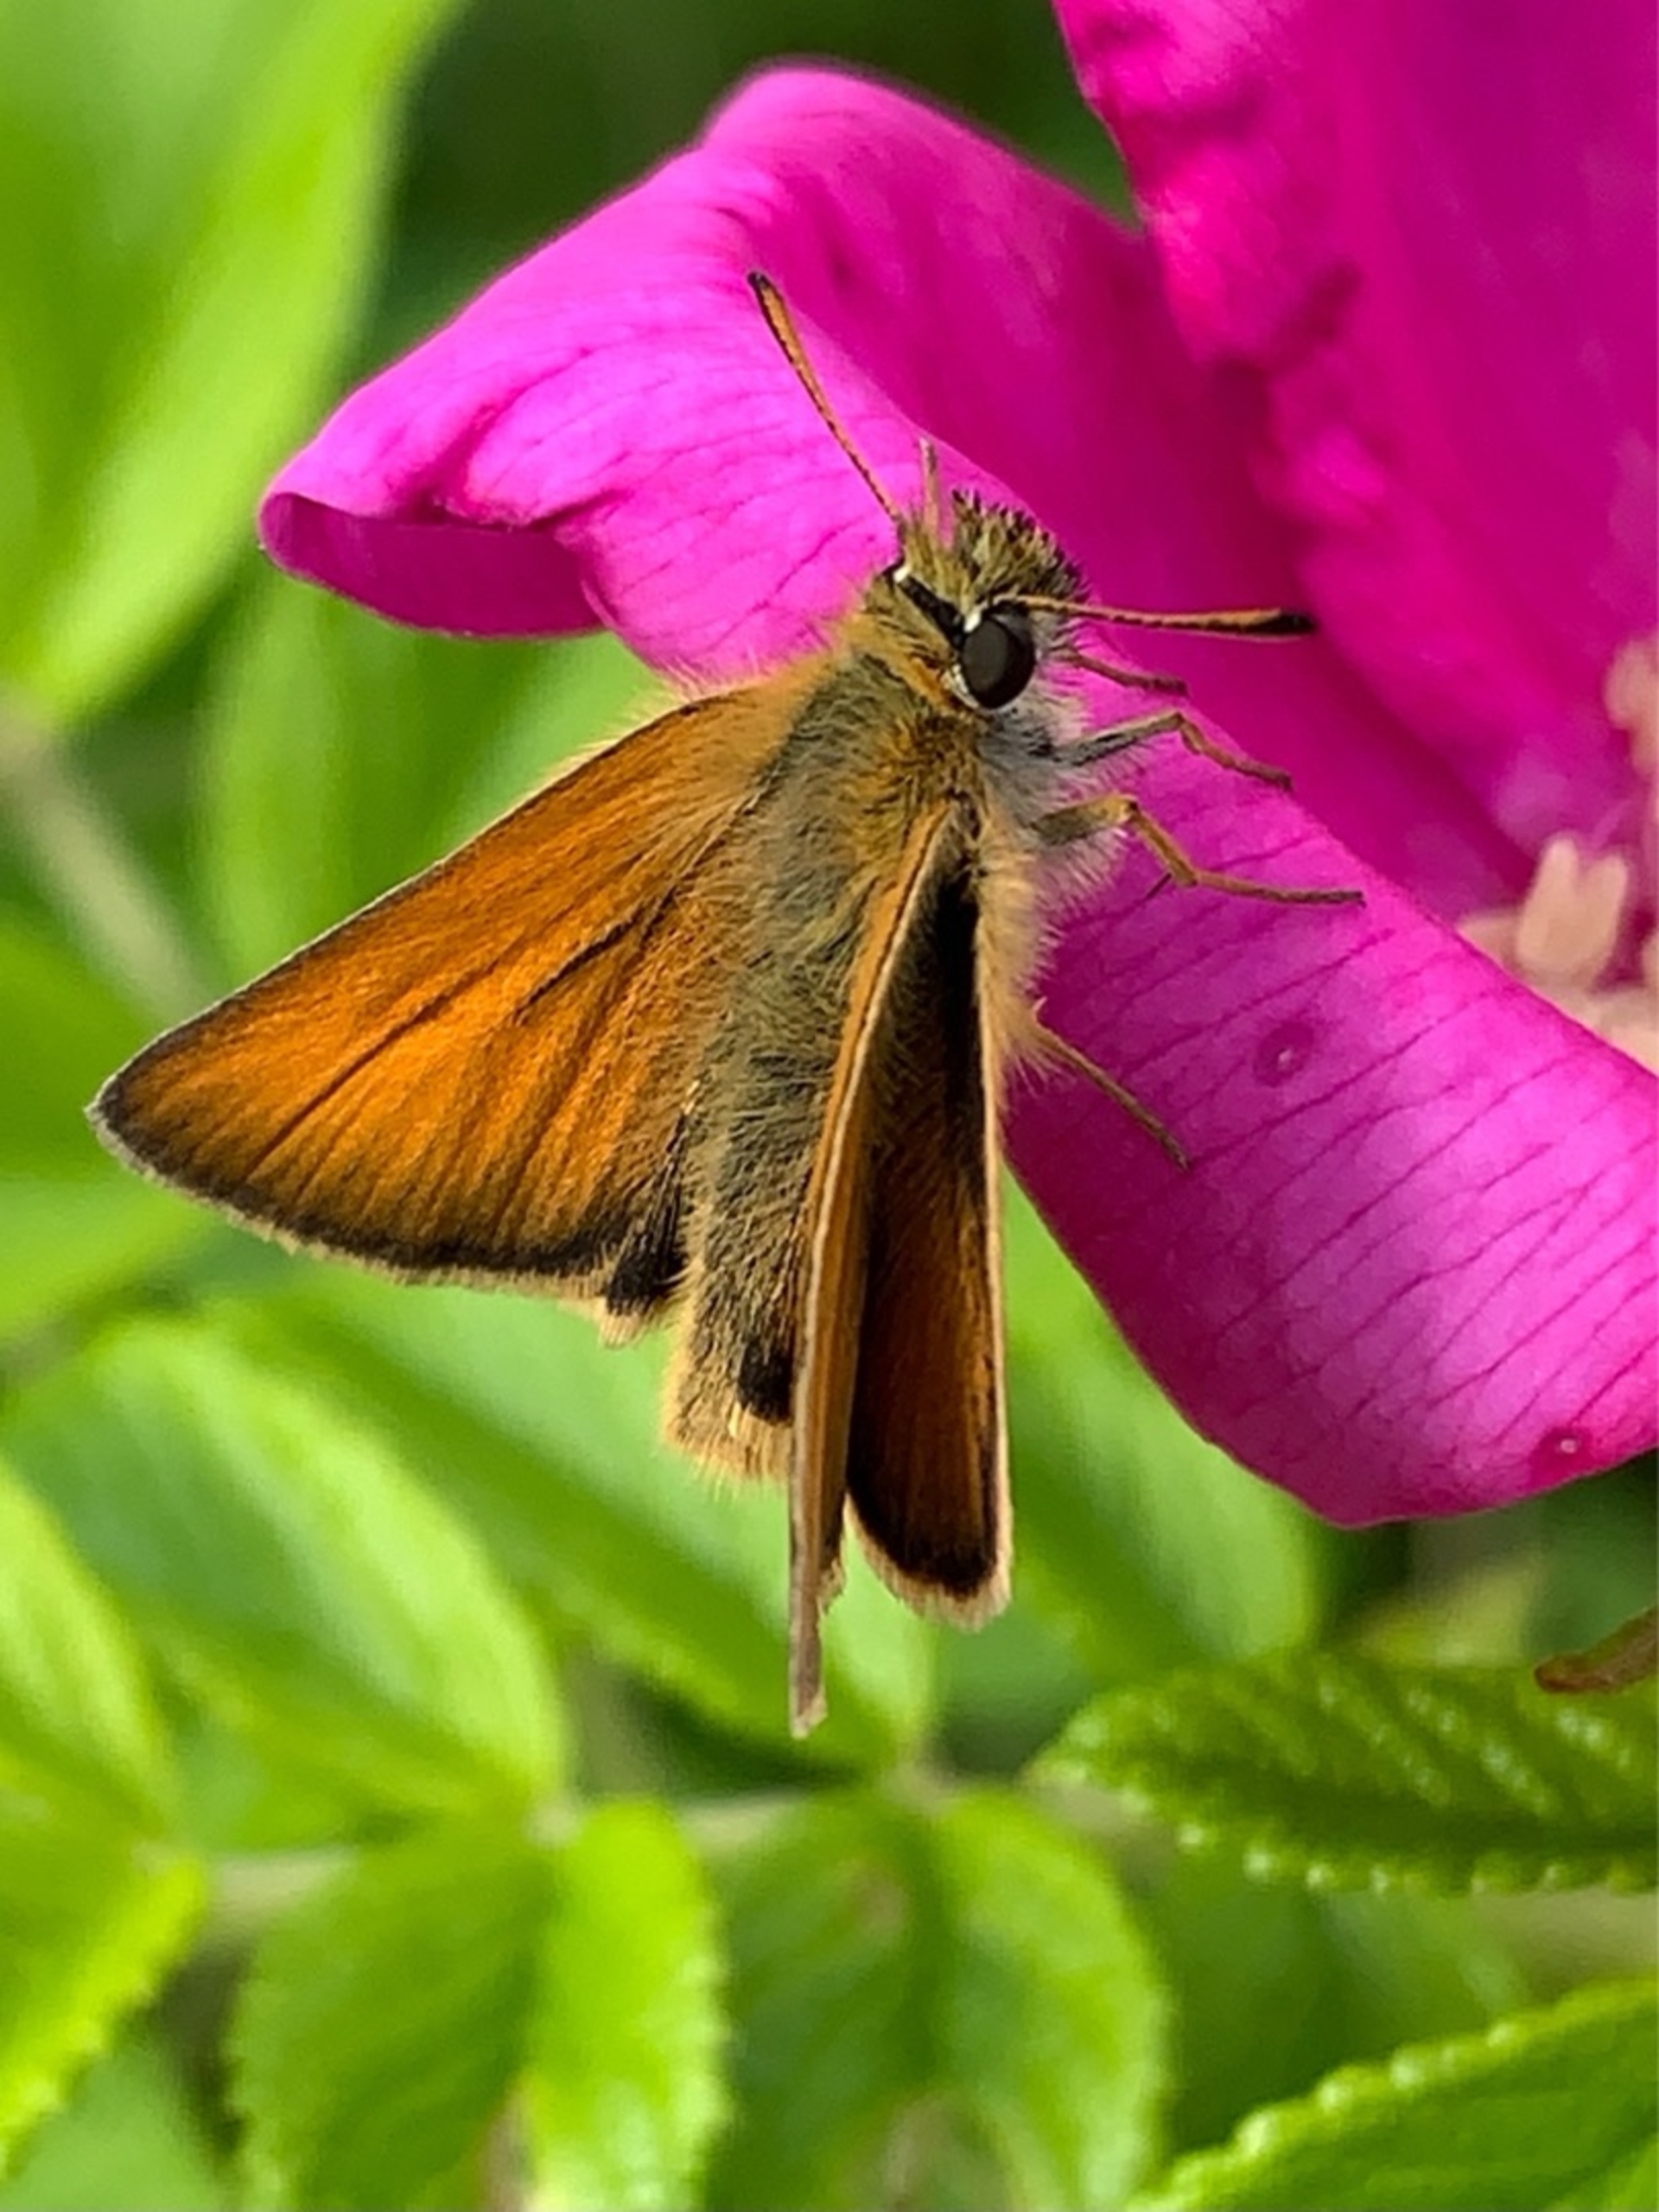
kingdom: Animalia
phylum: Arthropoda
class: Insecta
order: Lepidoptera
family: Hesperiidae
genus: Thymelicus
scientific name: Thymelicus lineola
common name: Stregbredpande
